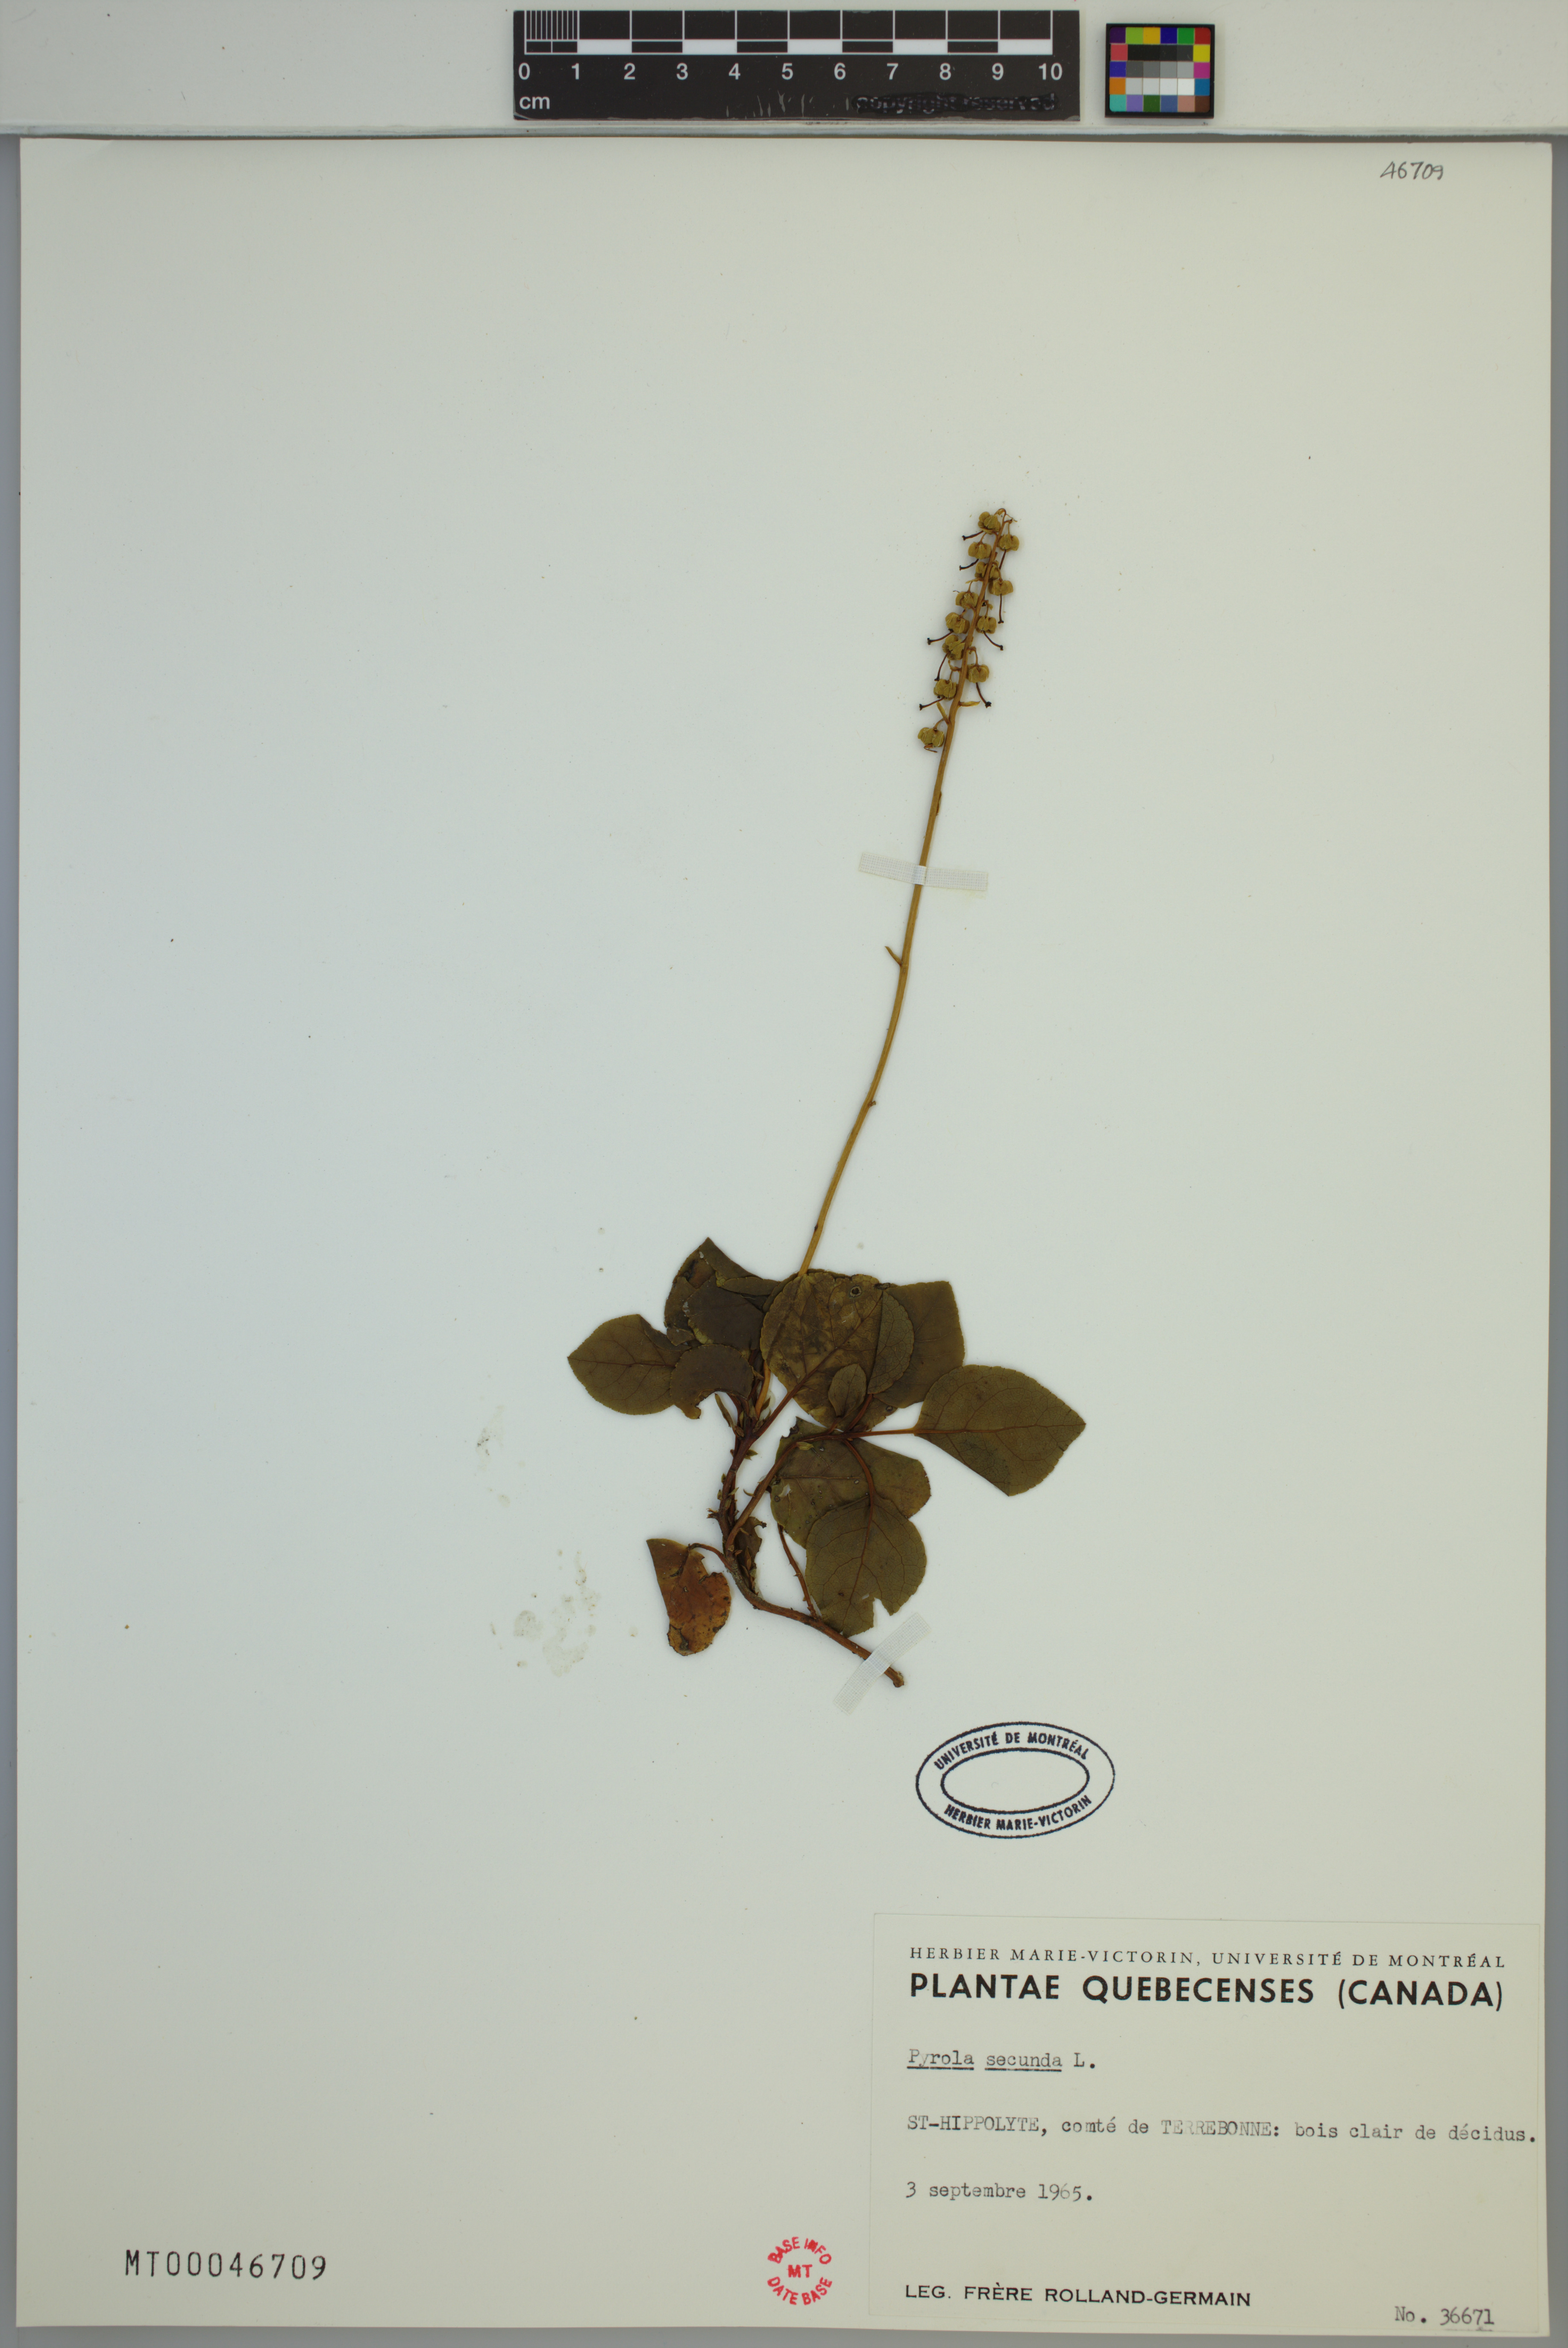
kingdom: Plantae
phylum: Tracheophyta
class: Magnoliopsida
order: Ericales
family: Ericaceae
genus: Orthilia
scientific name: Orthilia secunda
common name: One-sided orthilia
